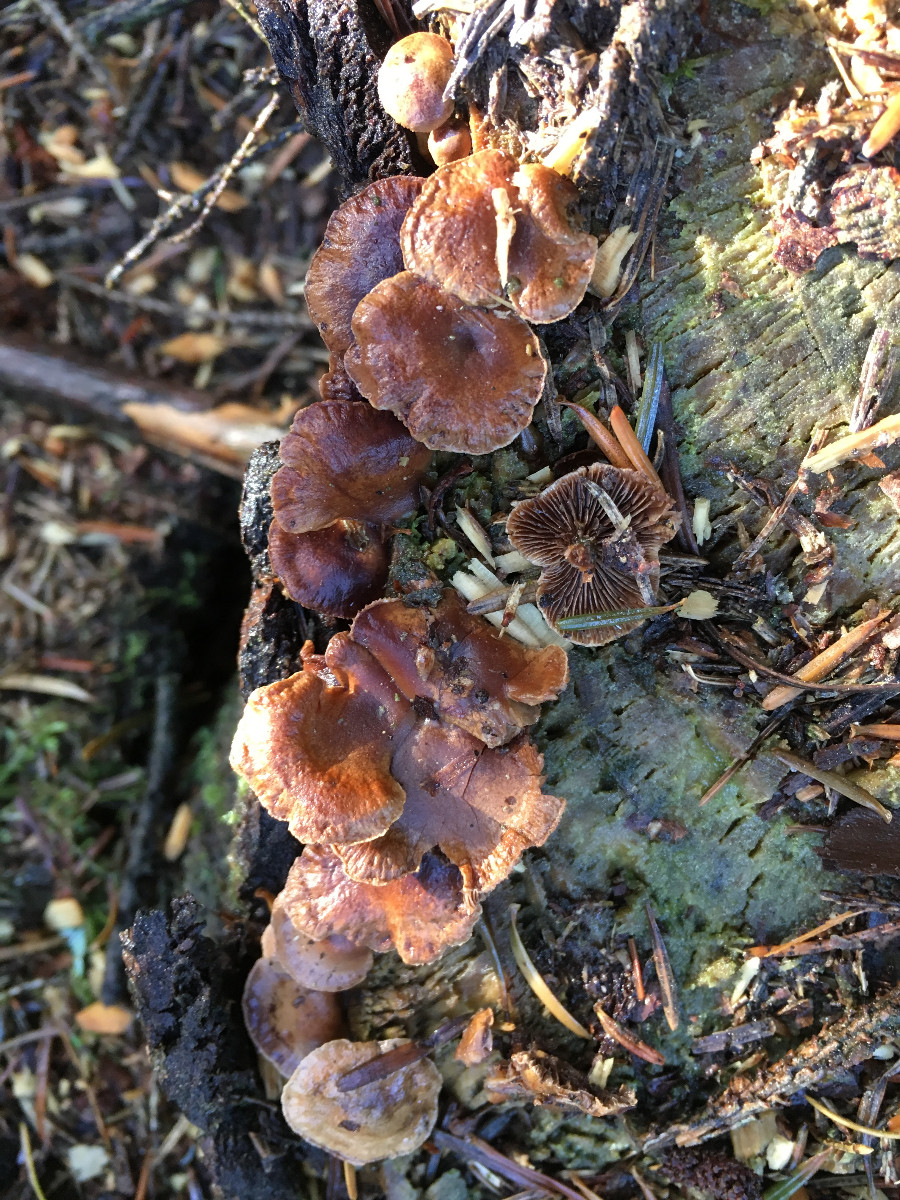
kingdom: Fungi
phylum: Basidiomycota
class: Agaricomycetes
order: Agaricales
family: Strophariaceae
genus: Deconica
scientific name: Deconica horizontalis
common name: ved-stråhat
